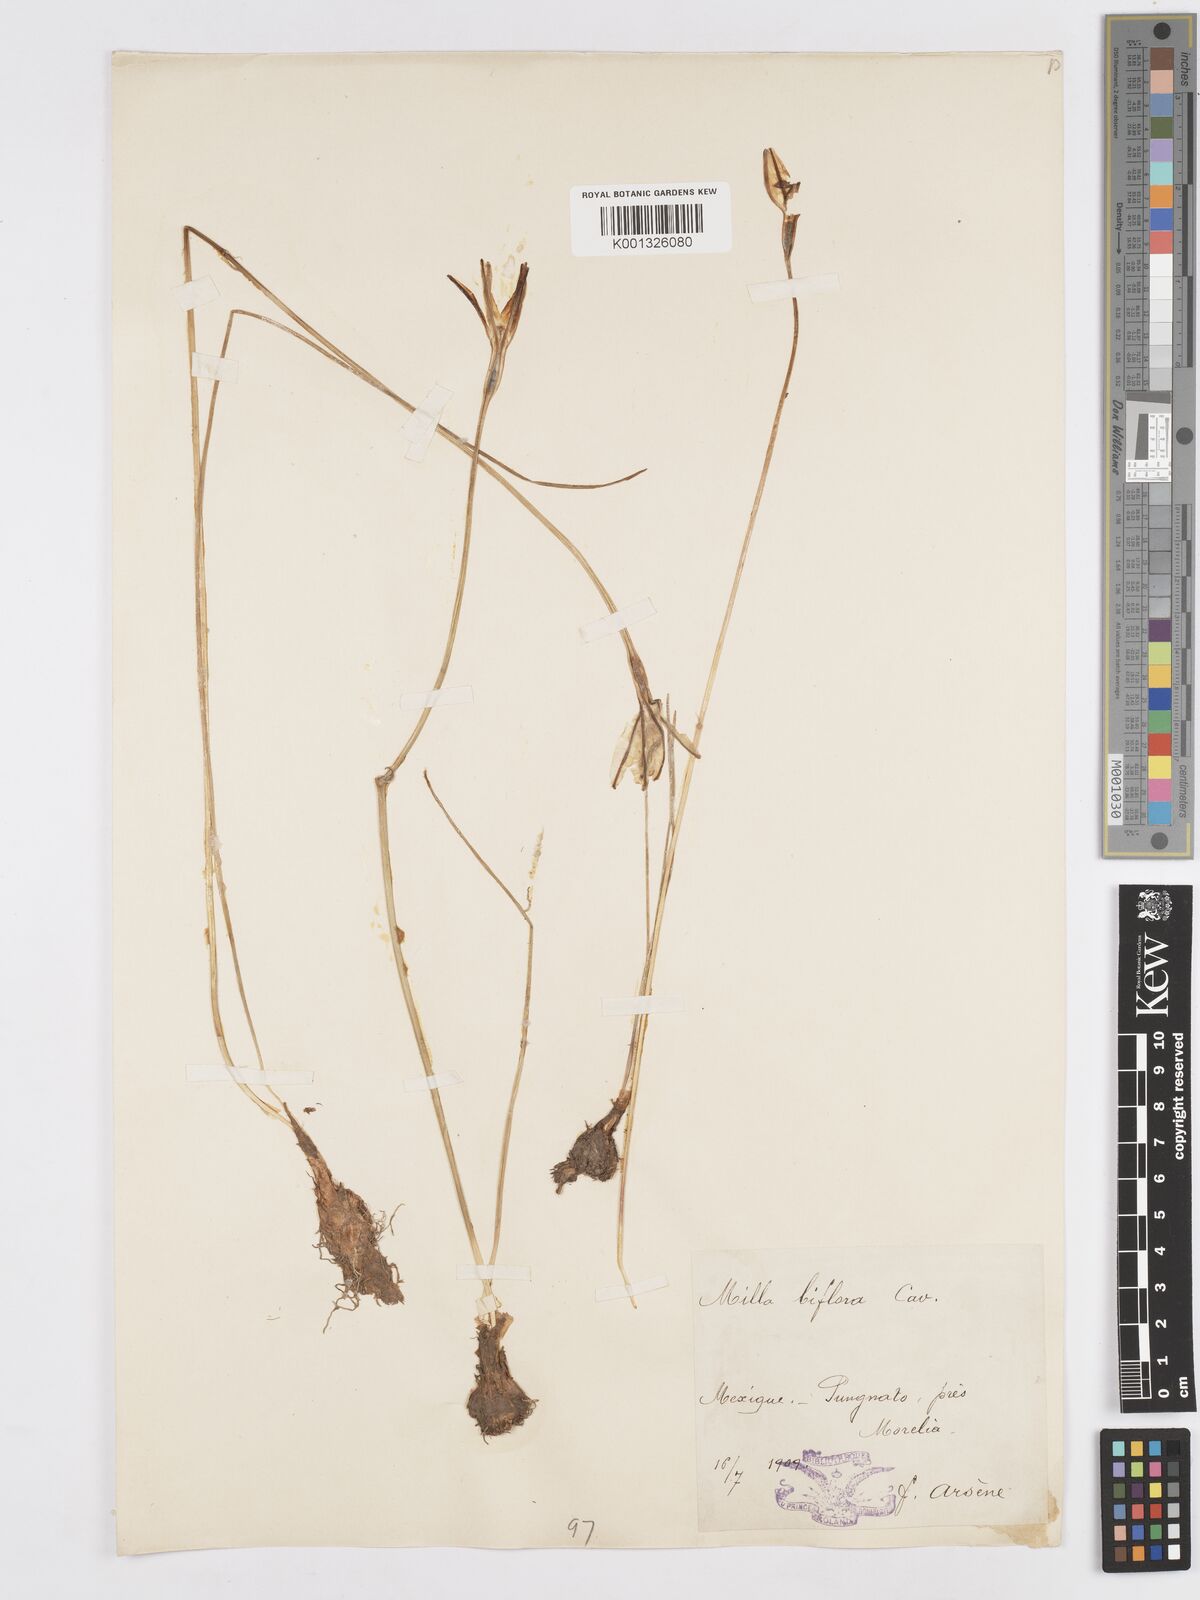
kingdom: Plantae
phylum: Tracheophyta
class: Liliopsida
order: Asparagales
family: Asparagaceae
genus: Milla
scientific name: Milla biflora
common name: Mexican-star
